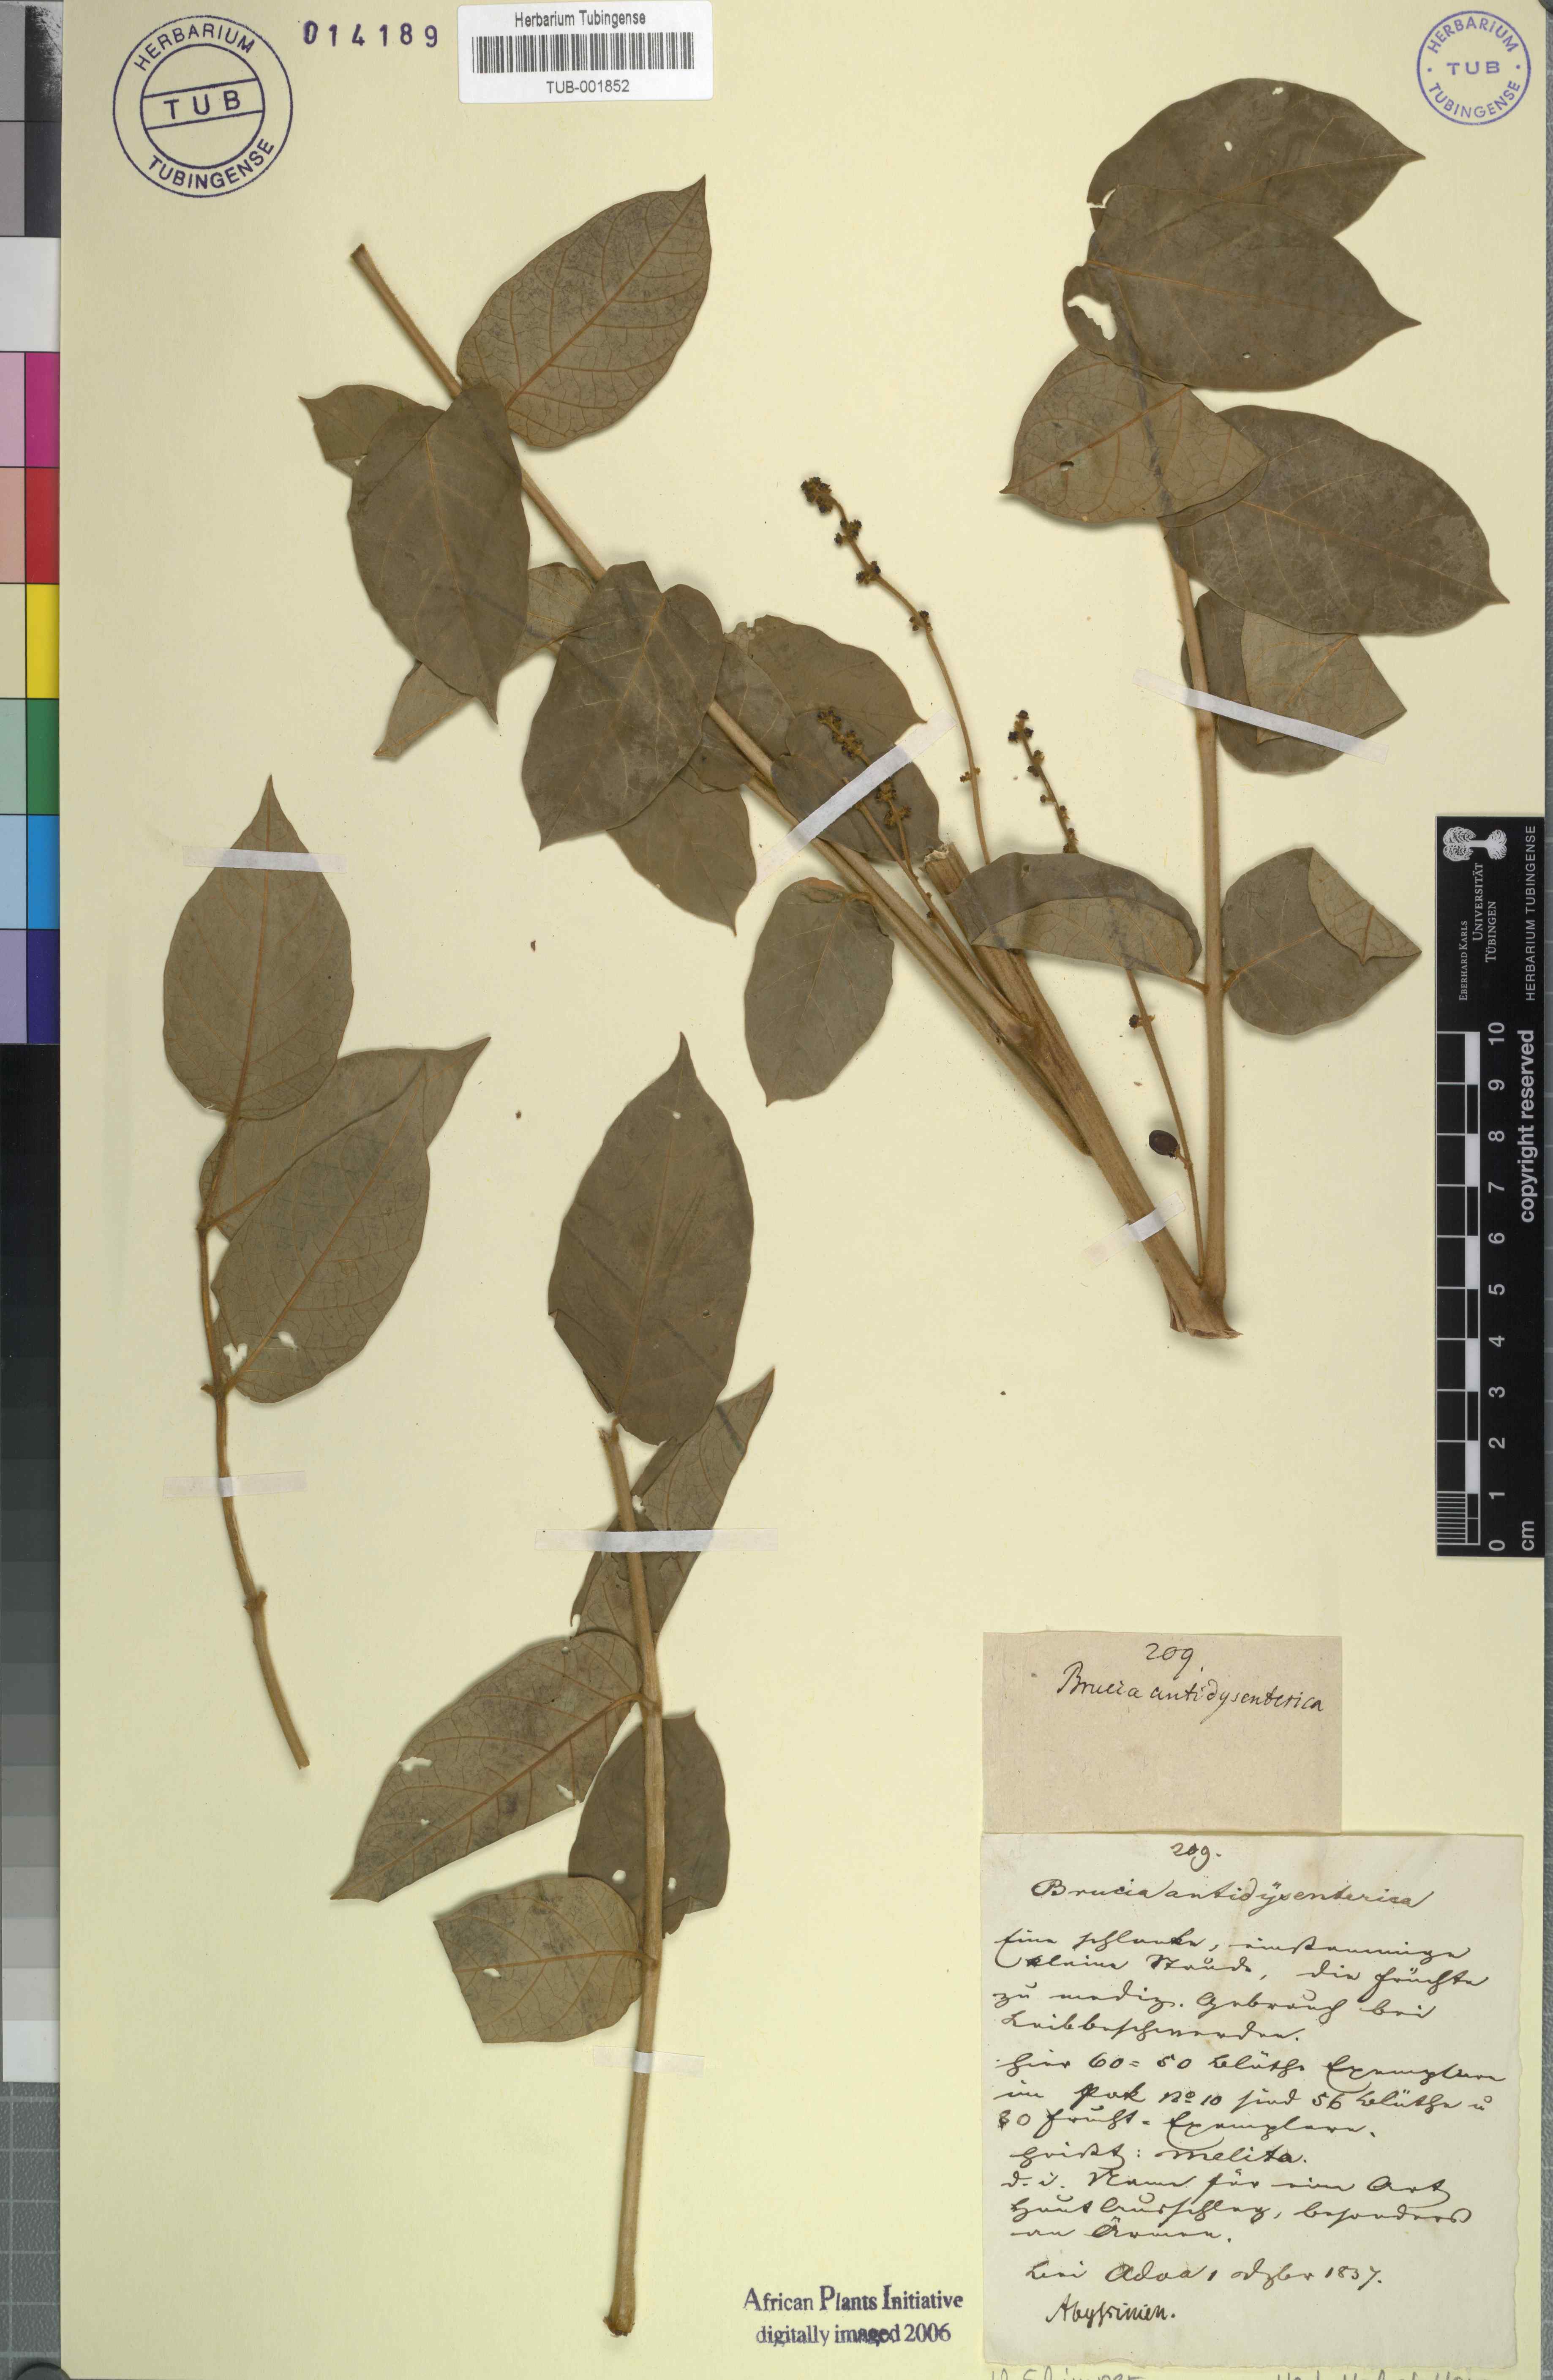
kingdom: Plantae
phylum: Tracheophyta
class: Magnoliopsida
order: Sapindales
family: Simaroubaceae
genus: Brucea
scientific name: Brucea antidysenterica
